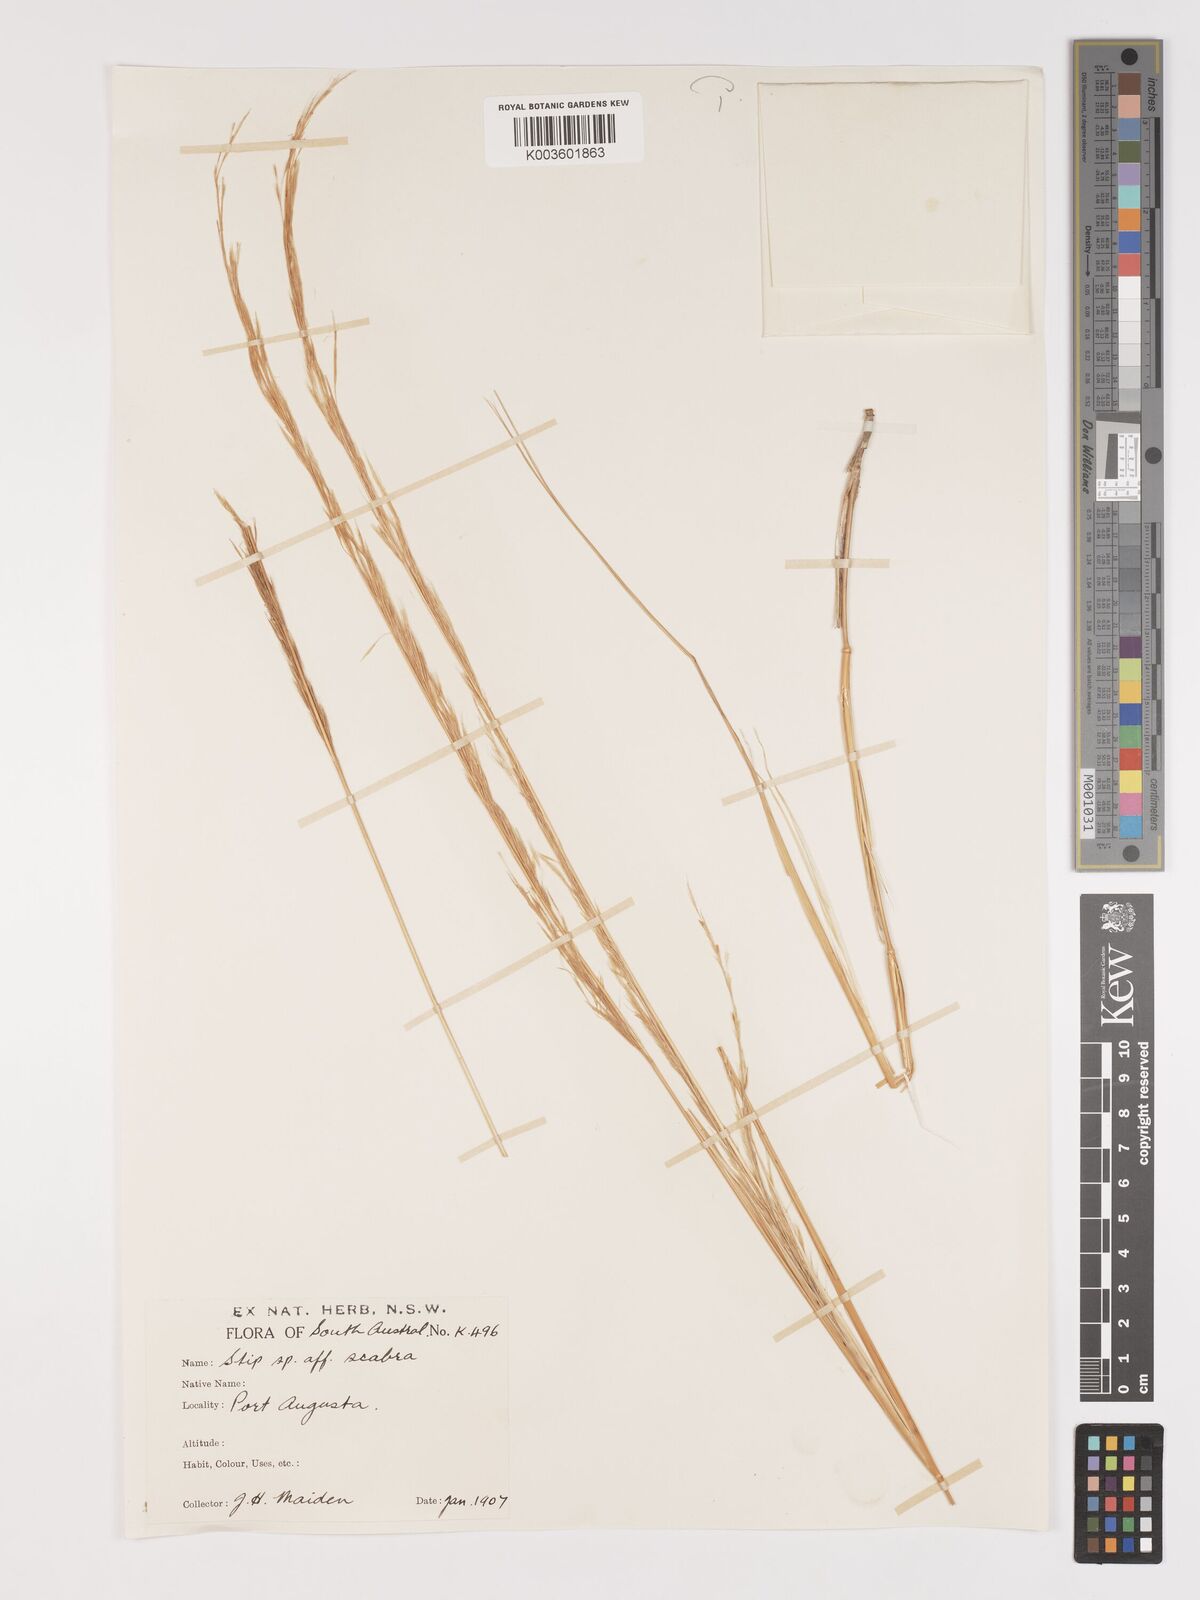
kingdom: Plantae
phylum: Tracheophyta
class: Liliopsida
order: Poales
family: Poaceae
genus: Austrostipa
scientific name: Austrostipa nitida
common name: Balcarra grass
